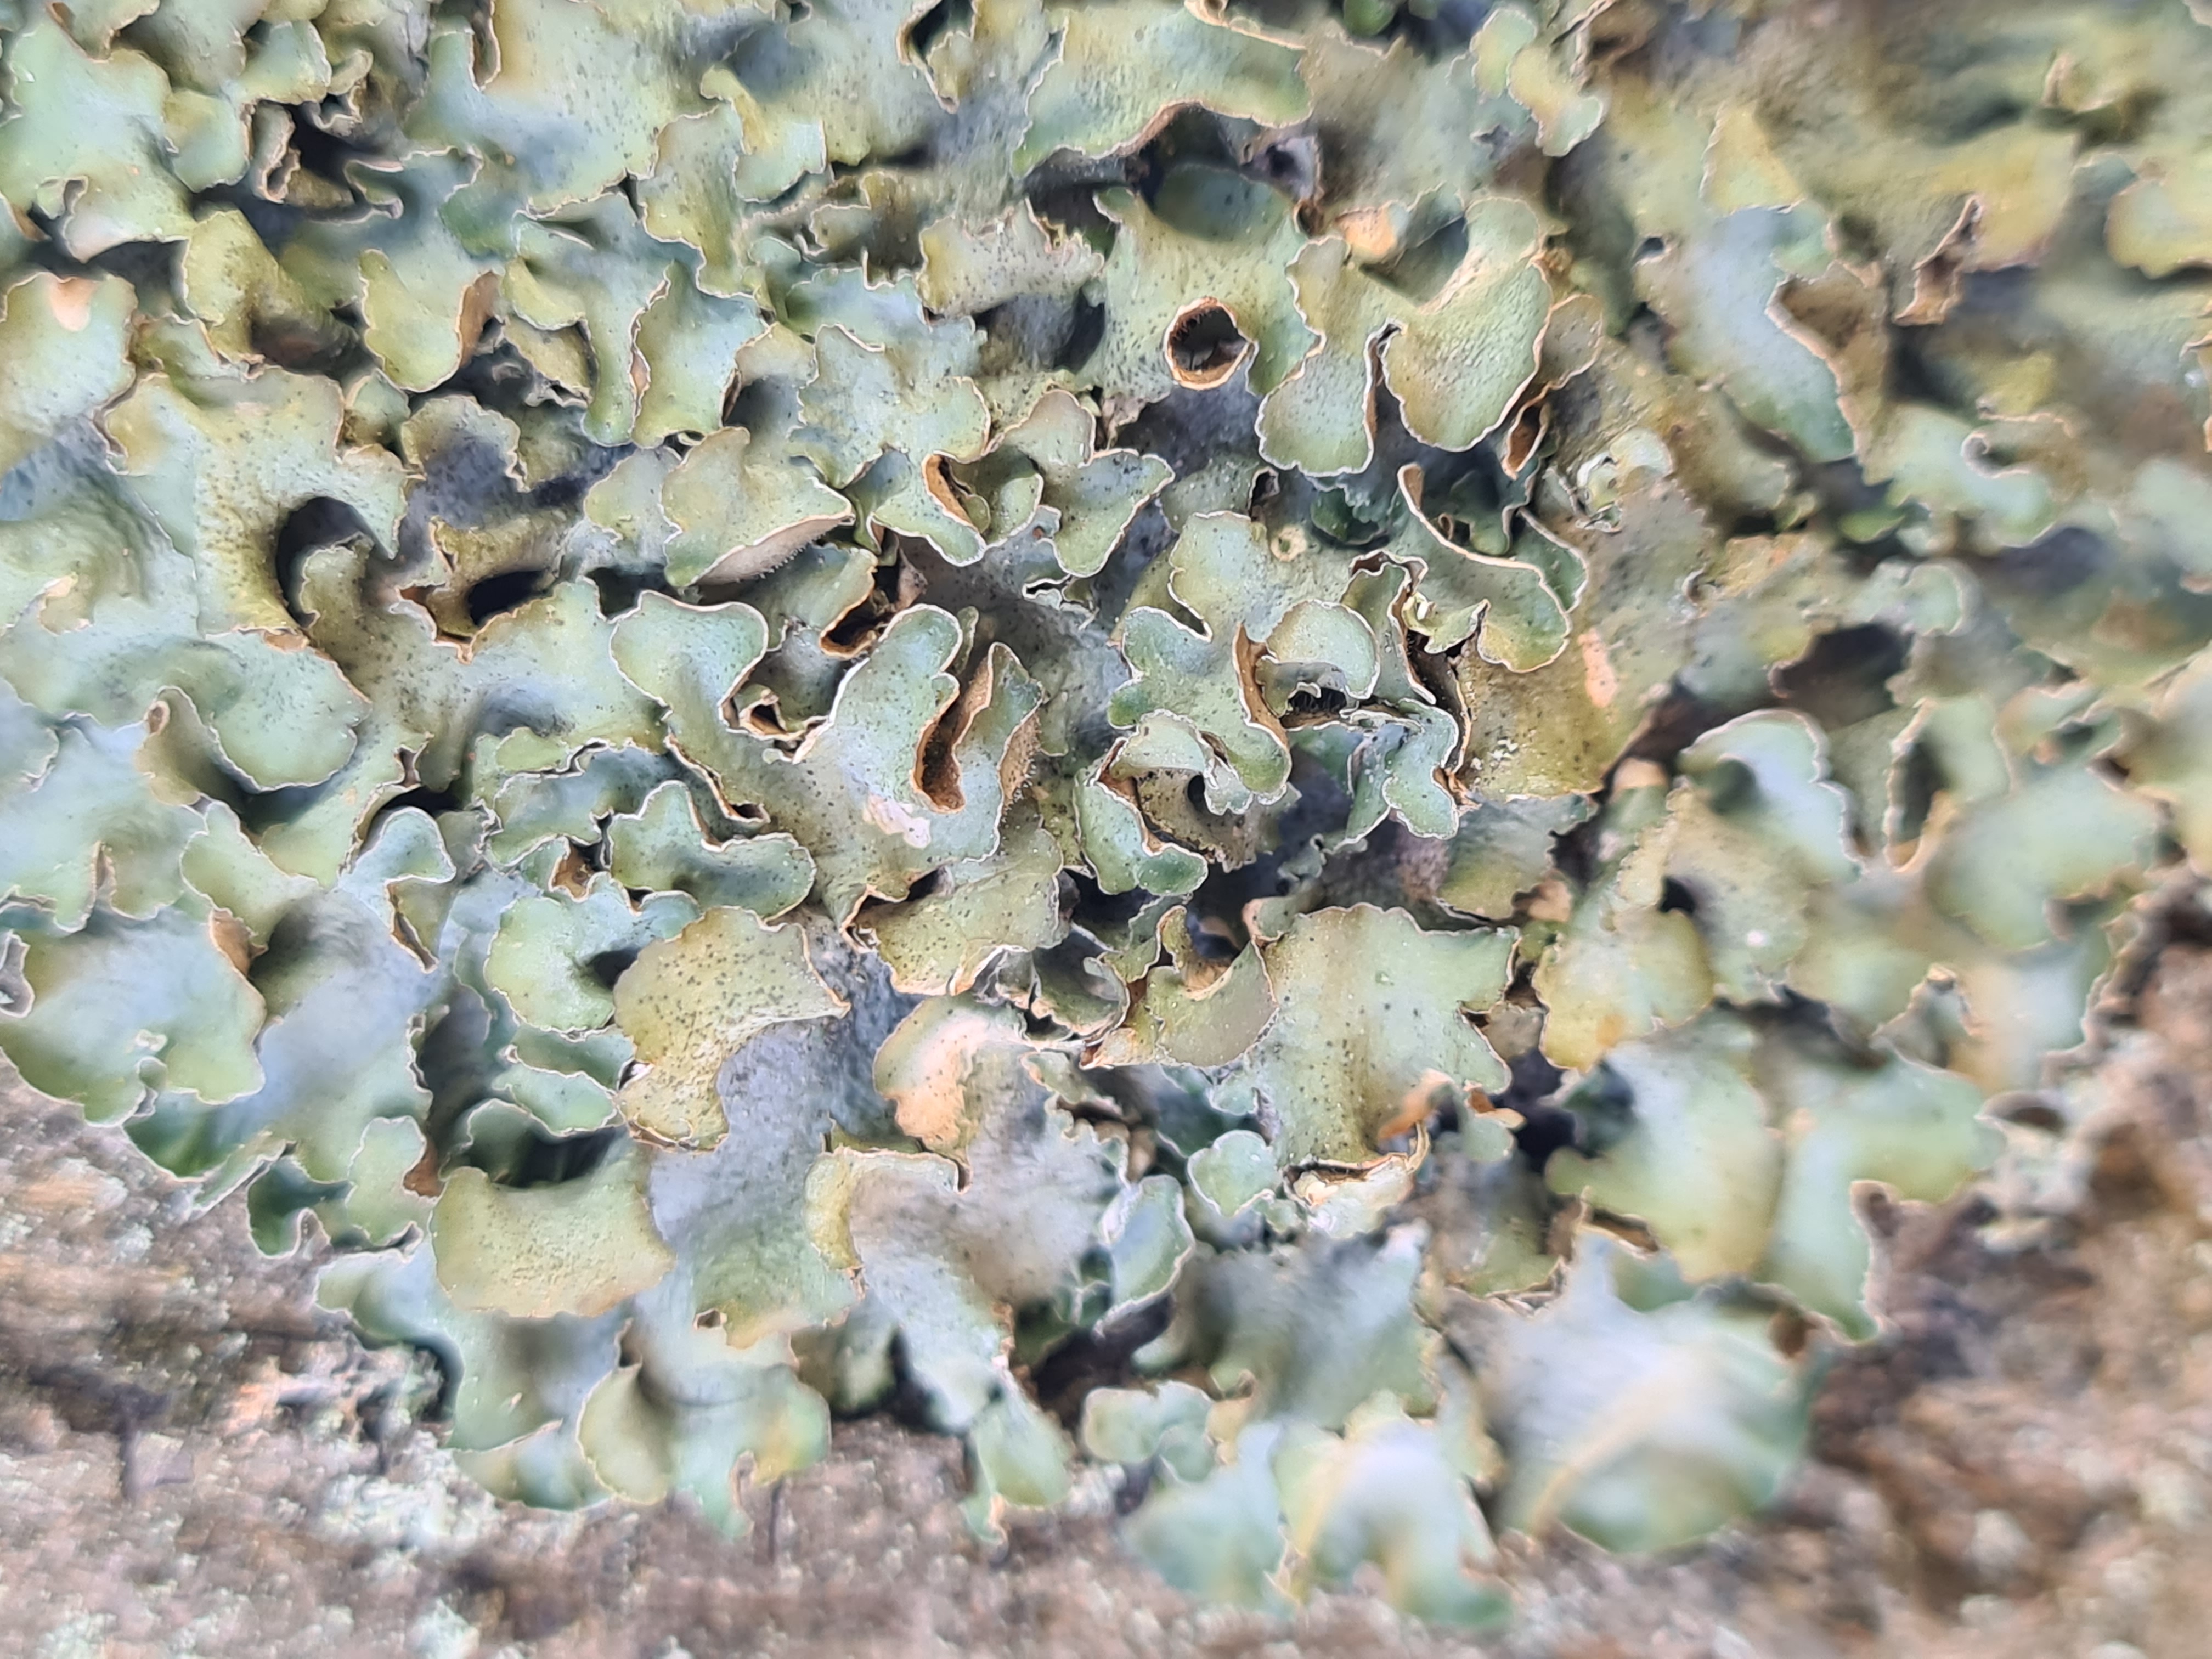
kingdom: Fungi
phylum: Ascomycota
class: Lecanoromycetes
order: Lecanorales
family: Parmeliaceae
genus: Pleurosticta
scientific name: Pleurosticta acetabulum
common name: Stor skållav
